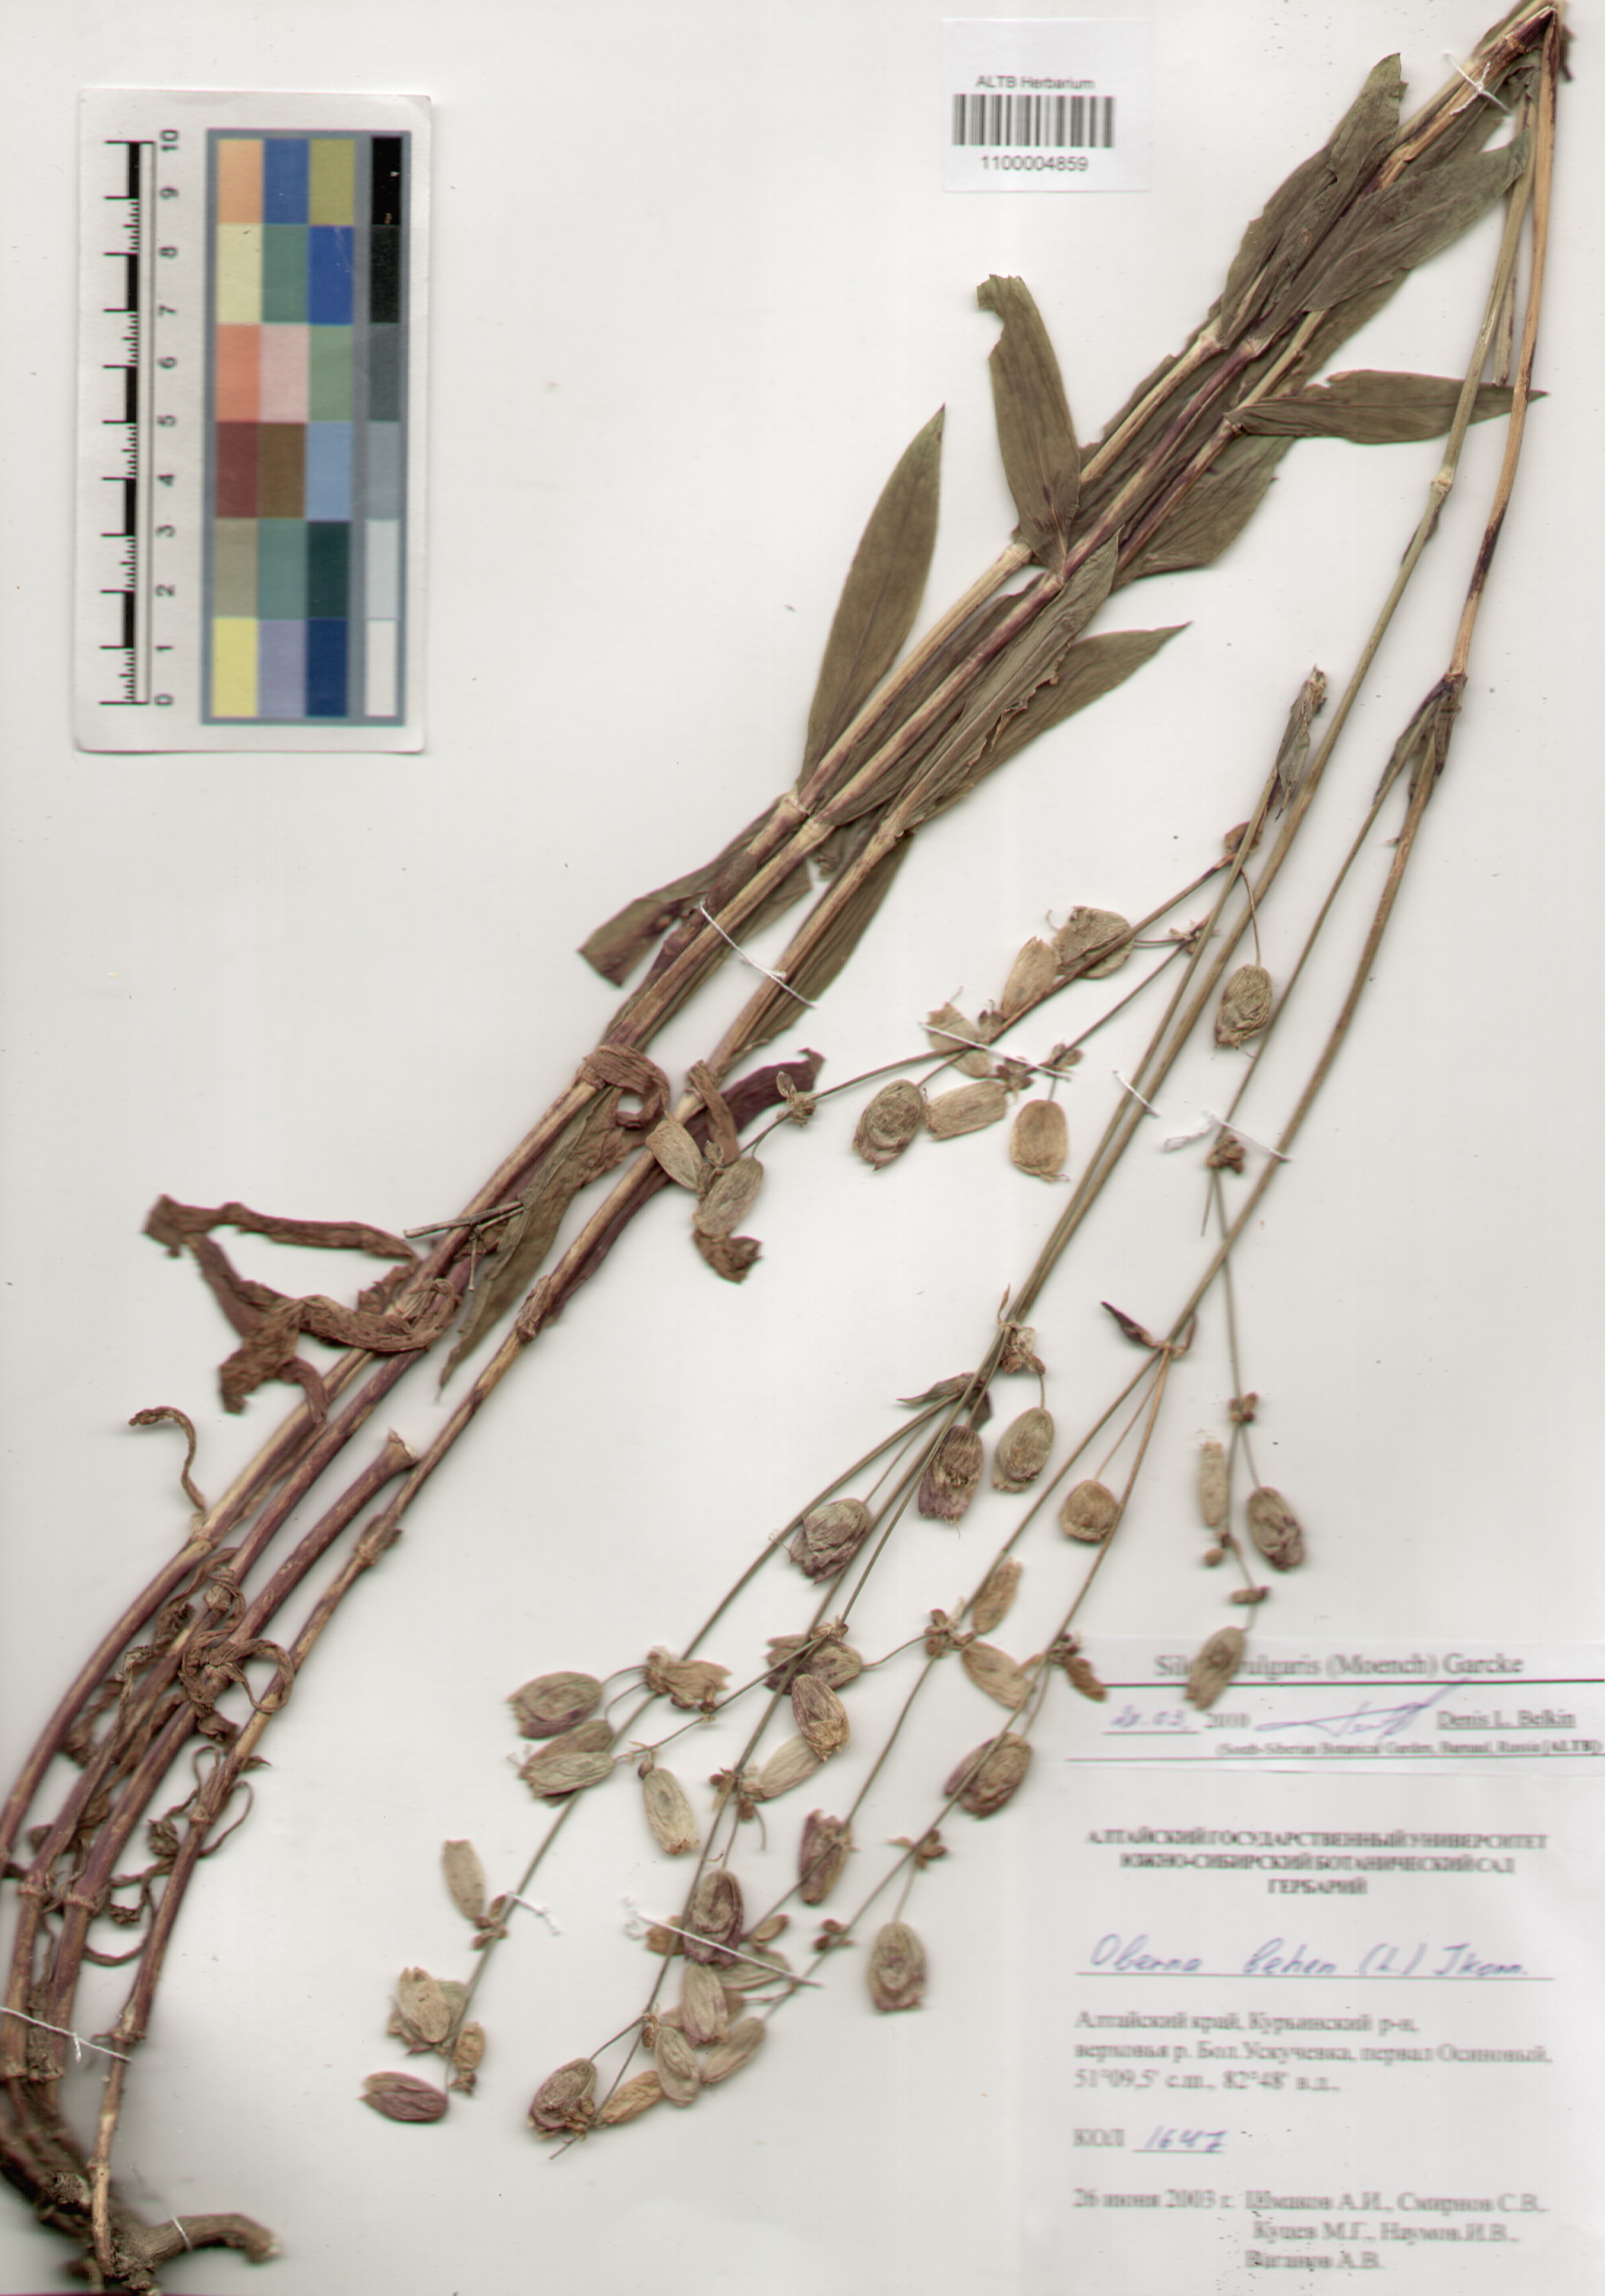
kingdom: Plantae
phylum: Tracheophyta
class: Magnoliopsida
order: Caryophyllales
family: Caryophyllaceae
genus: Silene
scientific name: Silene vulgaris
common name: Bladder campion
